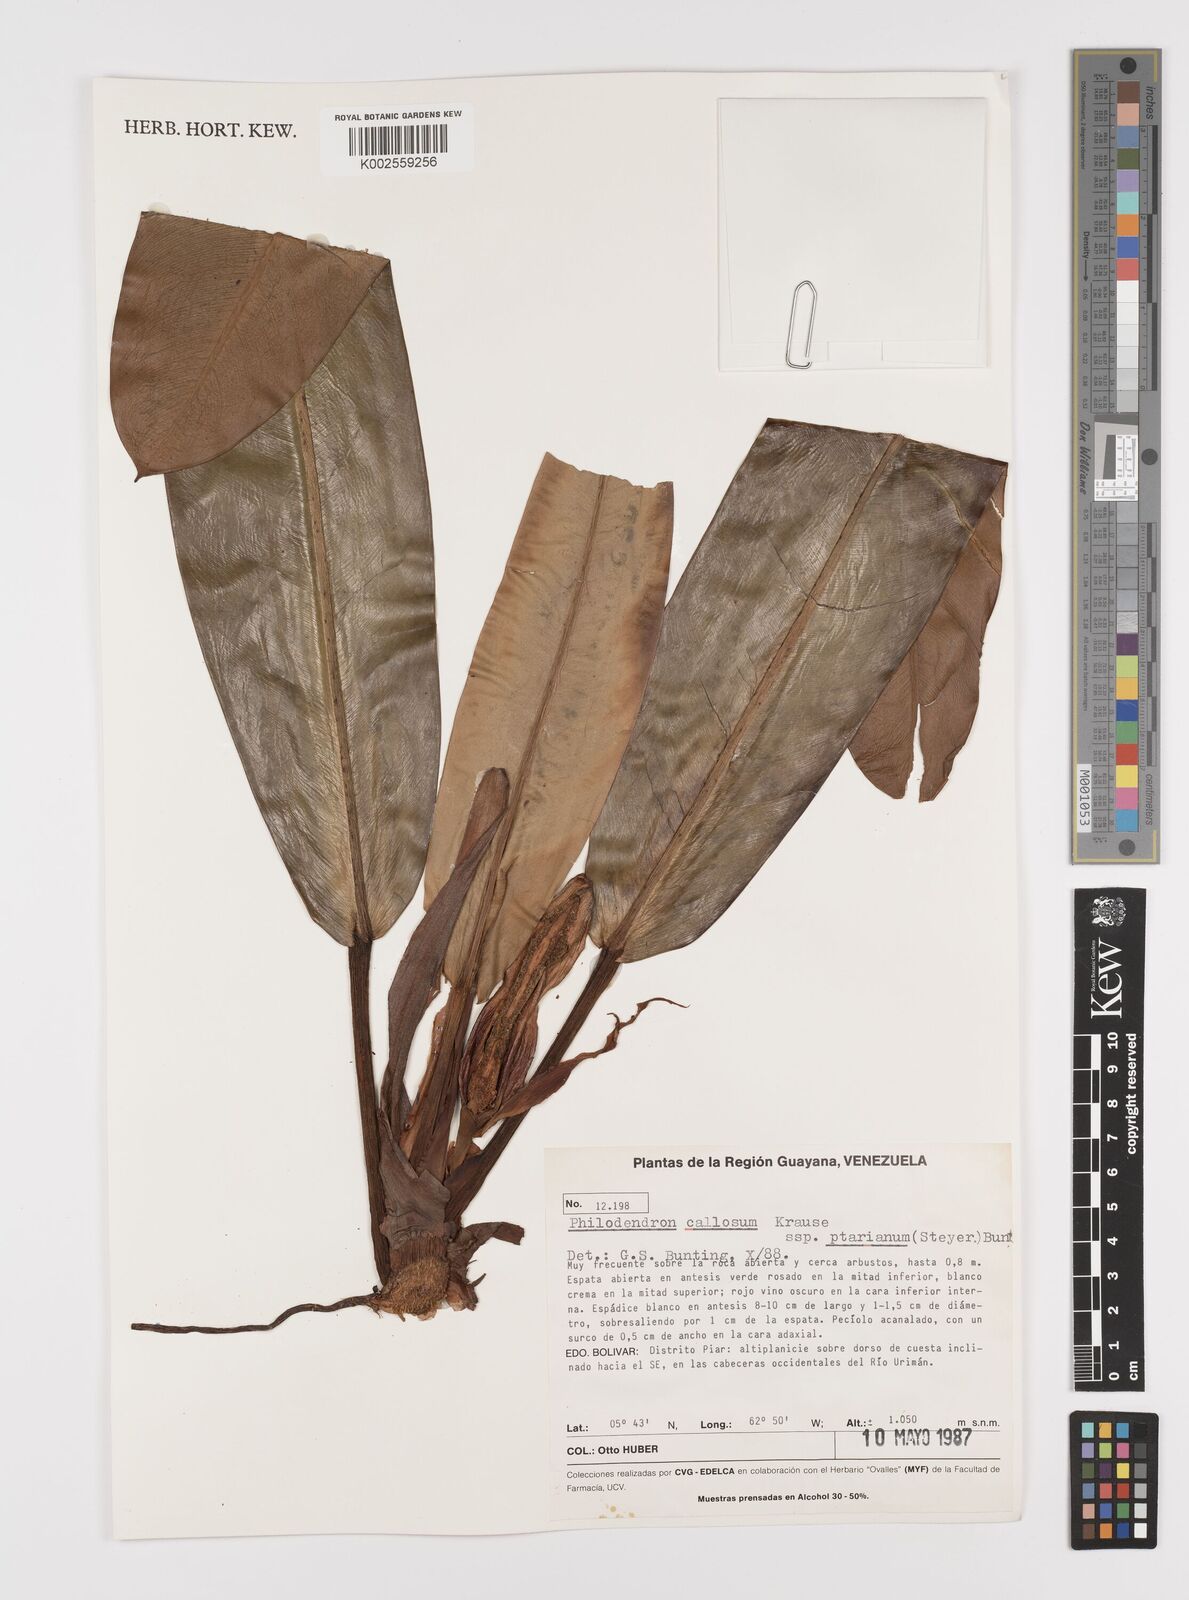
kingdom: Plantae
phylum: Tracheophyta
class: Liliopsida
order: Alismatales
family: Araceae
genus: Philodendron
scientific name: Philodendron callosum
